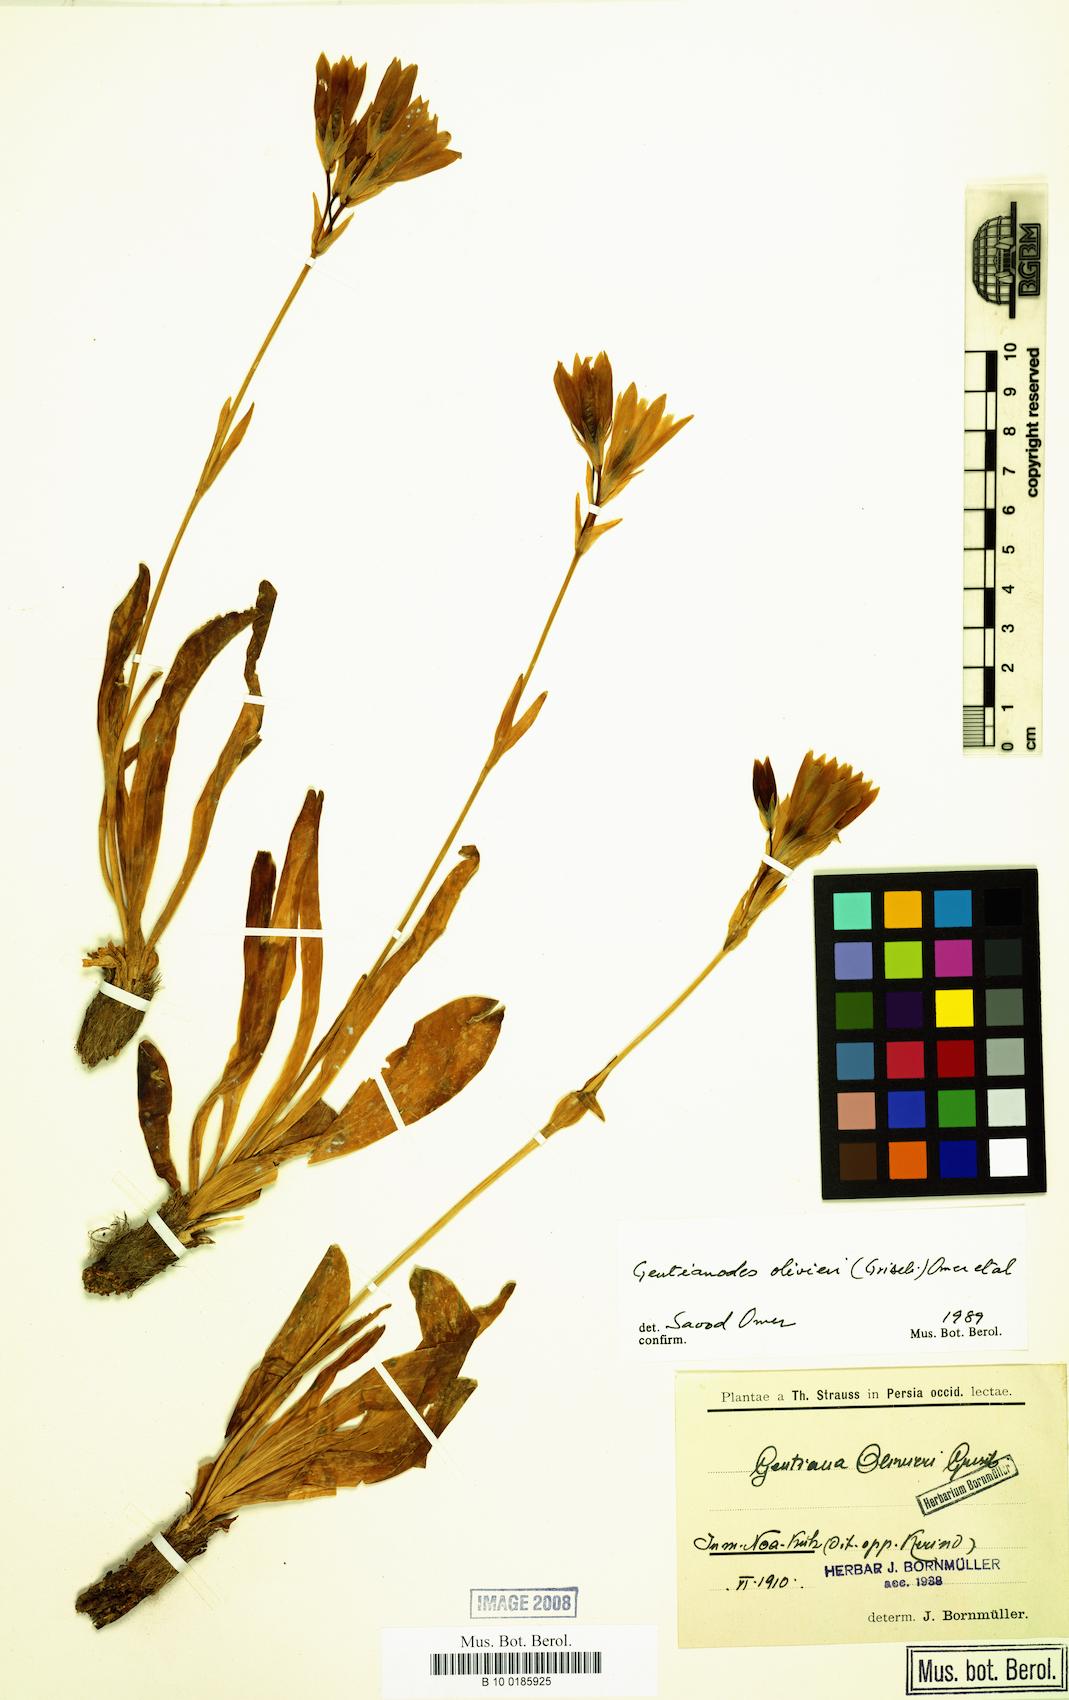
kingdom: Plantae
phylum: Tracheophyta
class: Magnoliopsida
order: Gentianales
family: Gentianaceae
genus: Gentiana
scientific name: Gentiana olivieri
